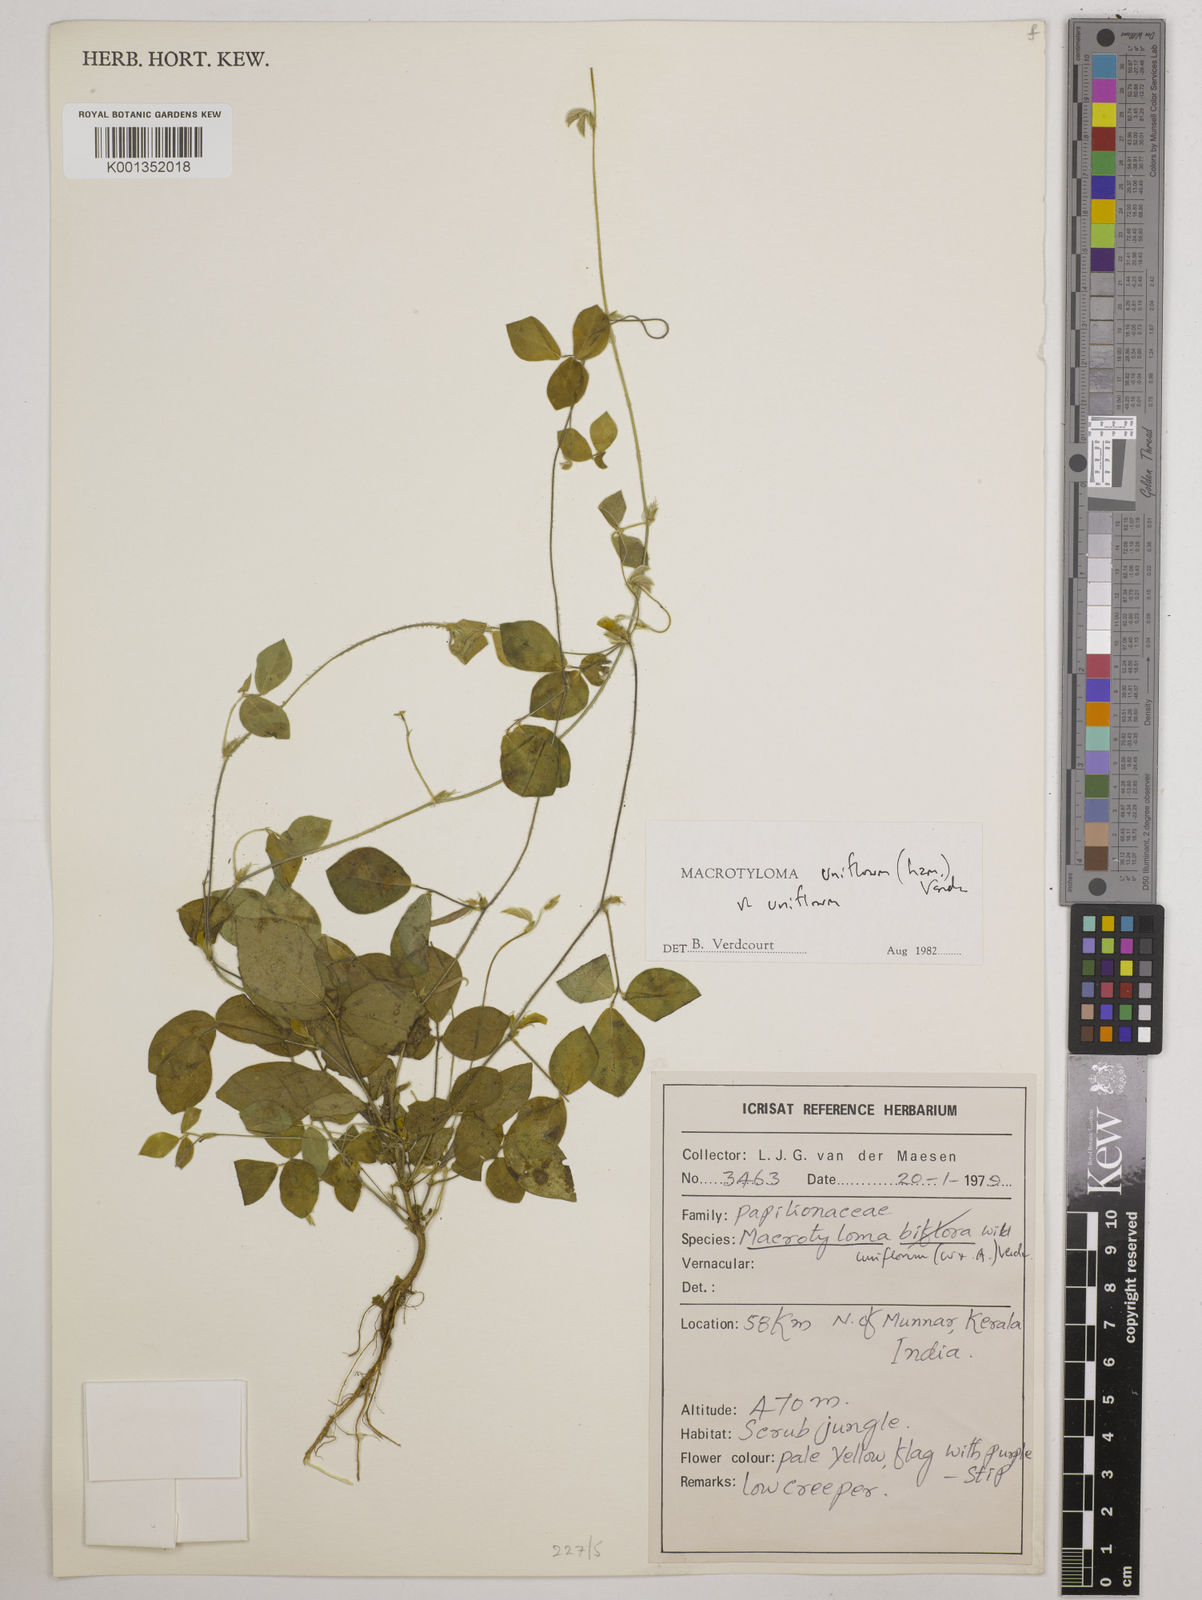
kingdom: Plantae
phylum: Tracheophyta
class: Magnoliopsida
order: Fabales
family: Fabaceae
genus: Macrotyloma
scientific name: Macrotyloma uniflorum
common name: Horse gram
